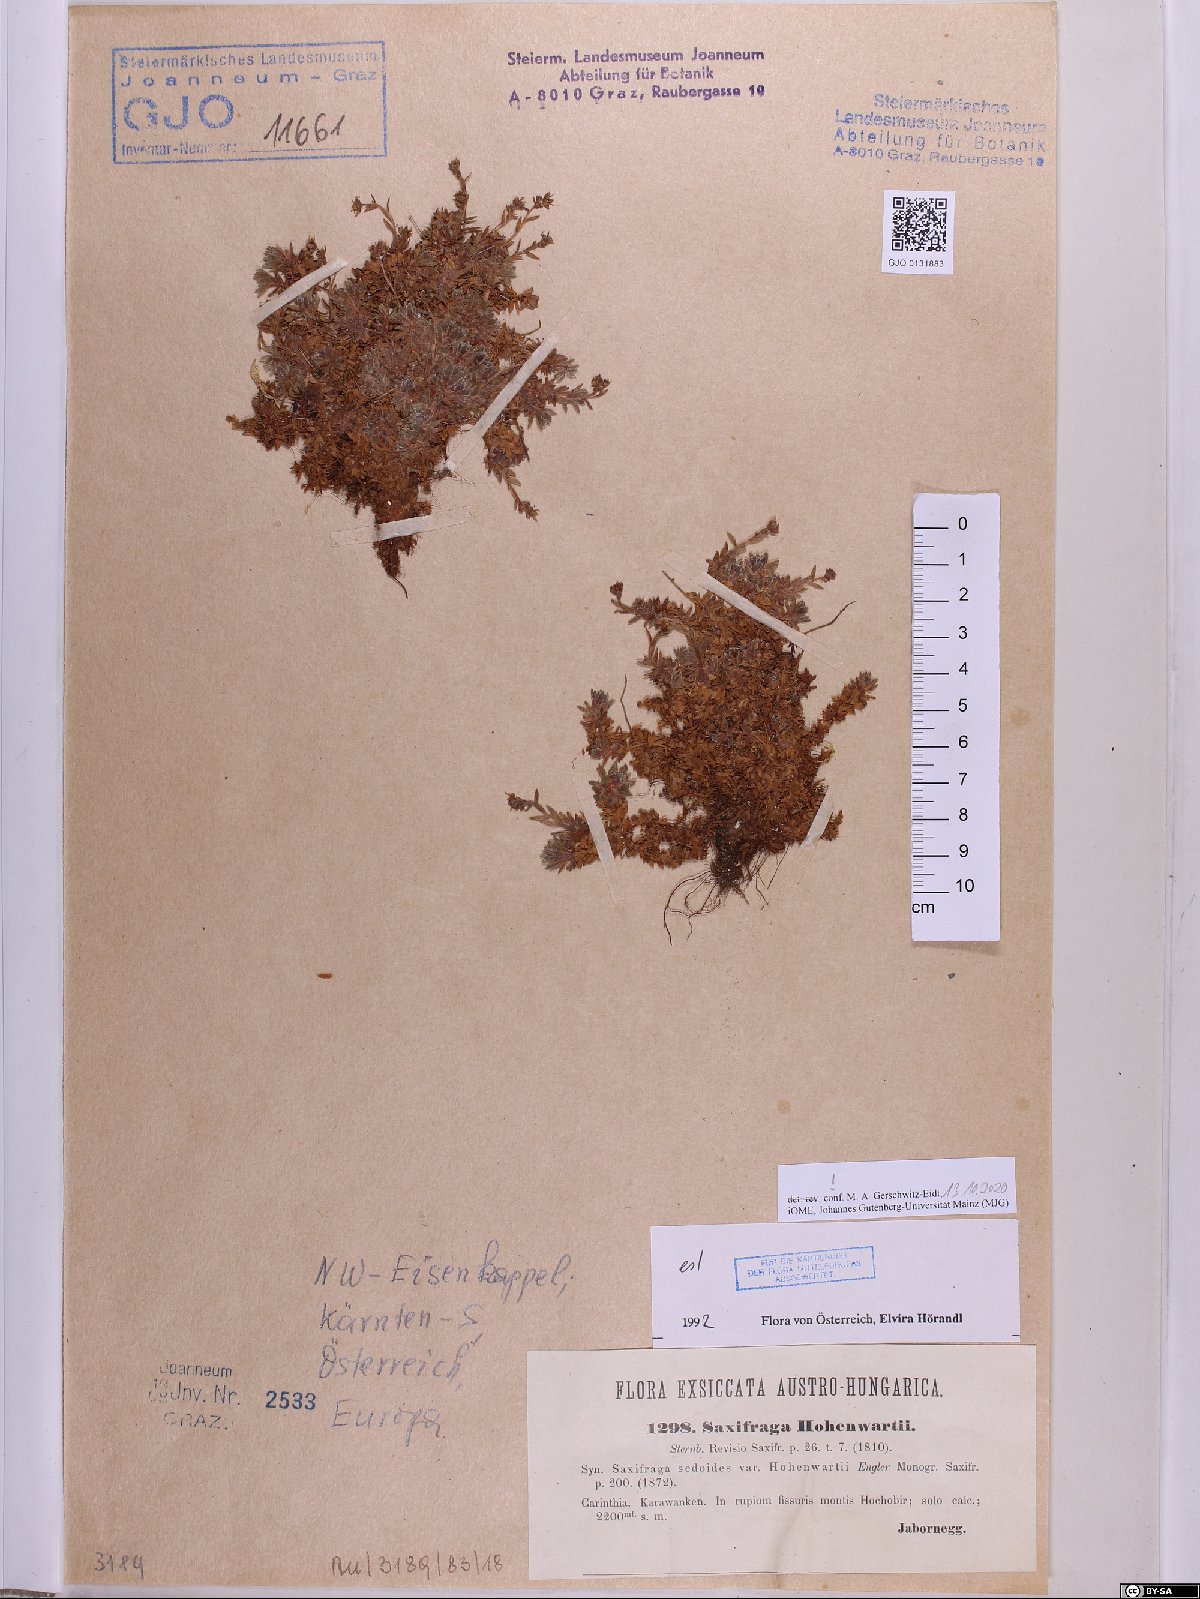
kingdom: Plantae
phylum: Tracheophyta
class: Magnoliopsida
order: Saxifragales
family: Saxifragaceae
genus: Saxifraga
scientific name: Saxifraga hohenwartii
